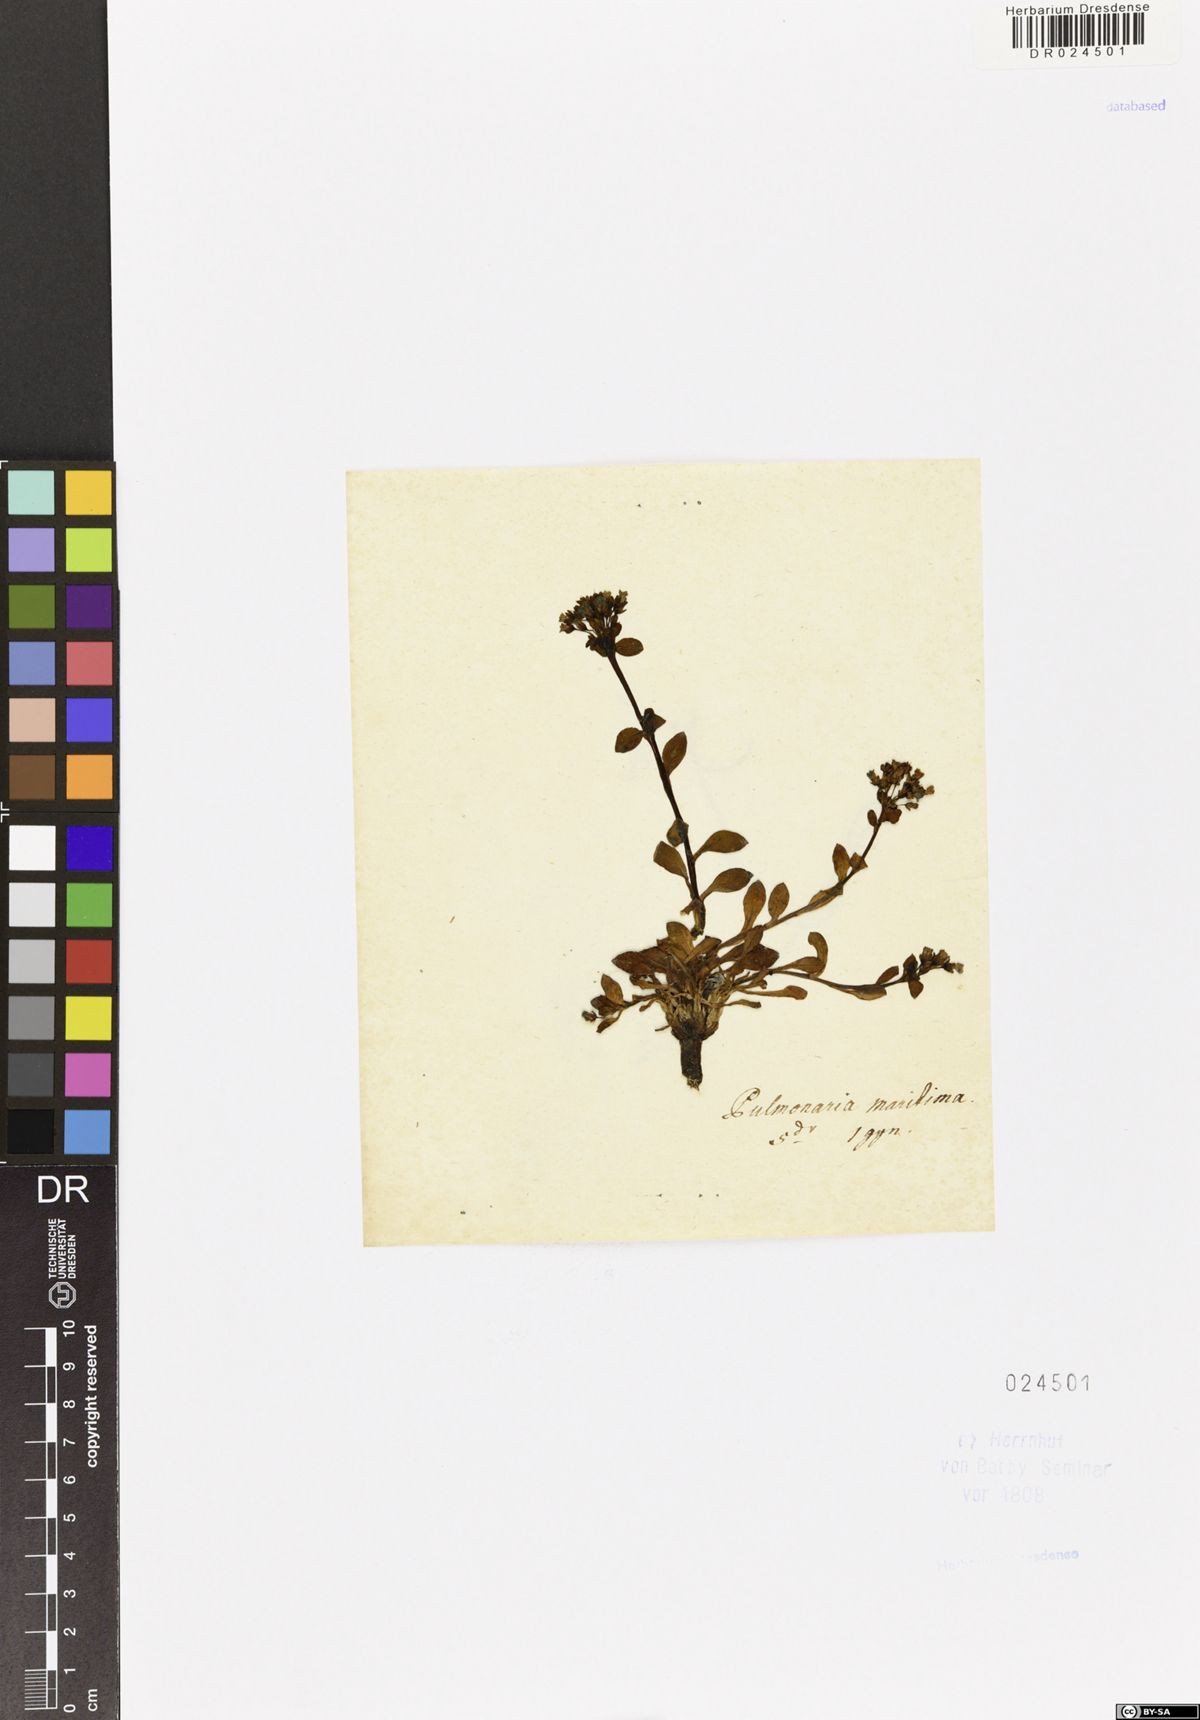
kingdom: Plantae
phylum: Tracheophyta
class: Magnoliopsida
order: Boraginales
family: Boraginaceae
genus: Mertensia
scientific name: Mertensia maritima
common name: Oysterplant
